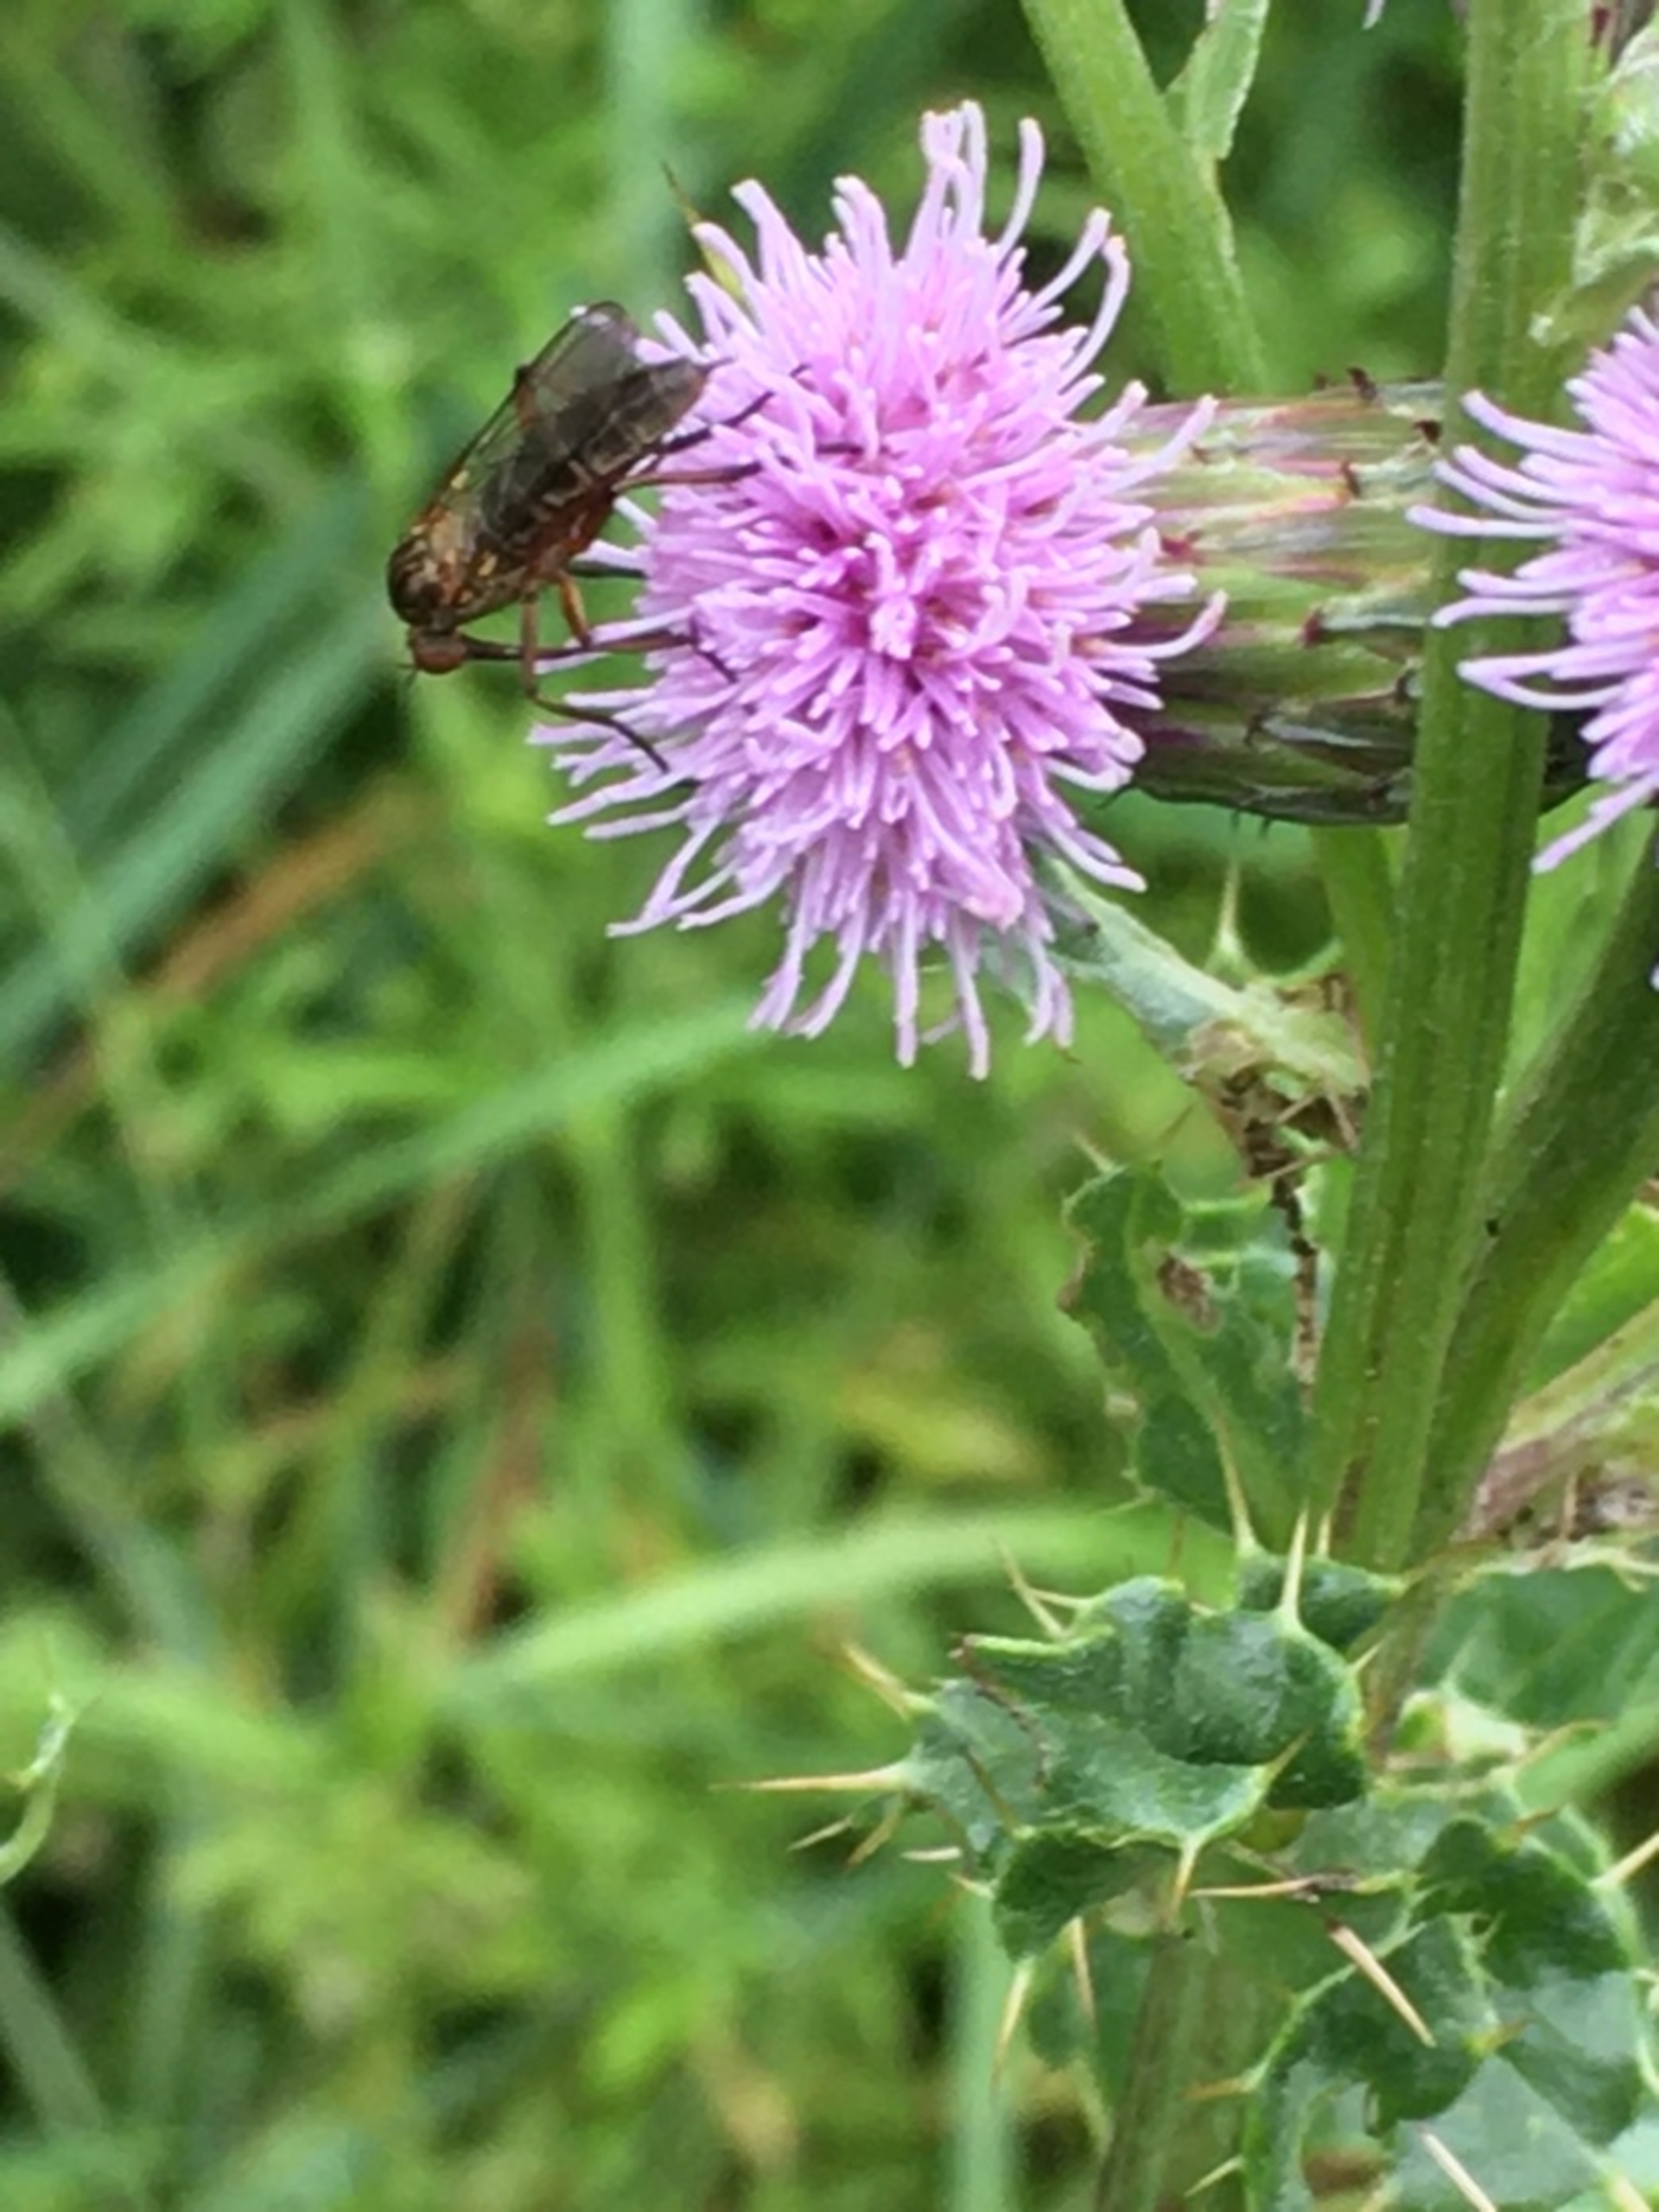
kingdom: Animalia
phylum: Arthropoda
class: Insecta
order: Diptera
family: Empididae
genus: Empis
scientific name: Empis livida
